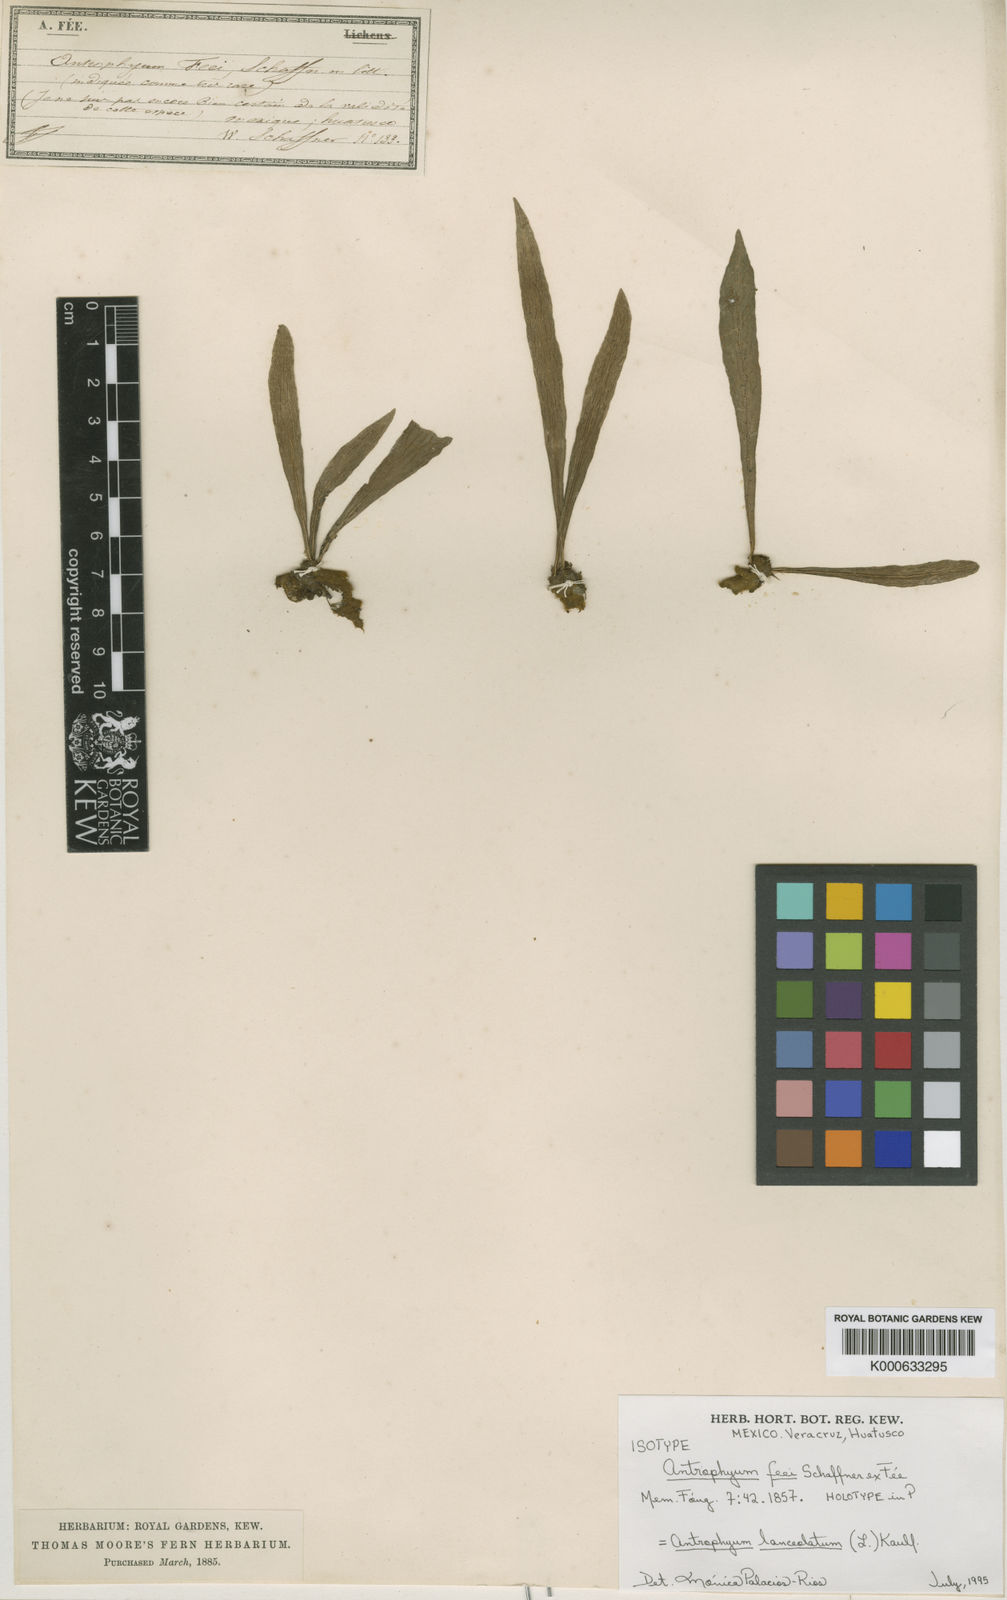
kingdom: Plantae
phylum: Tracheophyta
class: Polypodiopsida
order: Polypodiales
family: Pteridaceae
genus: Polytaenium
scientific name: Polytaenium feei
